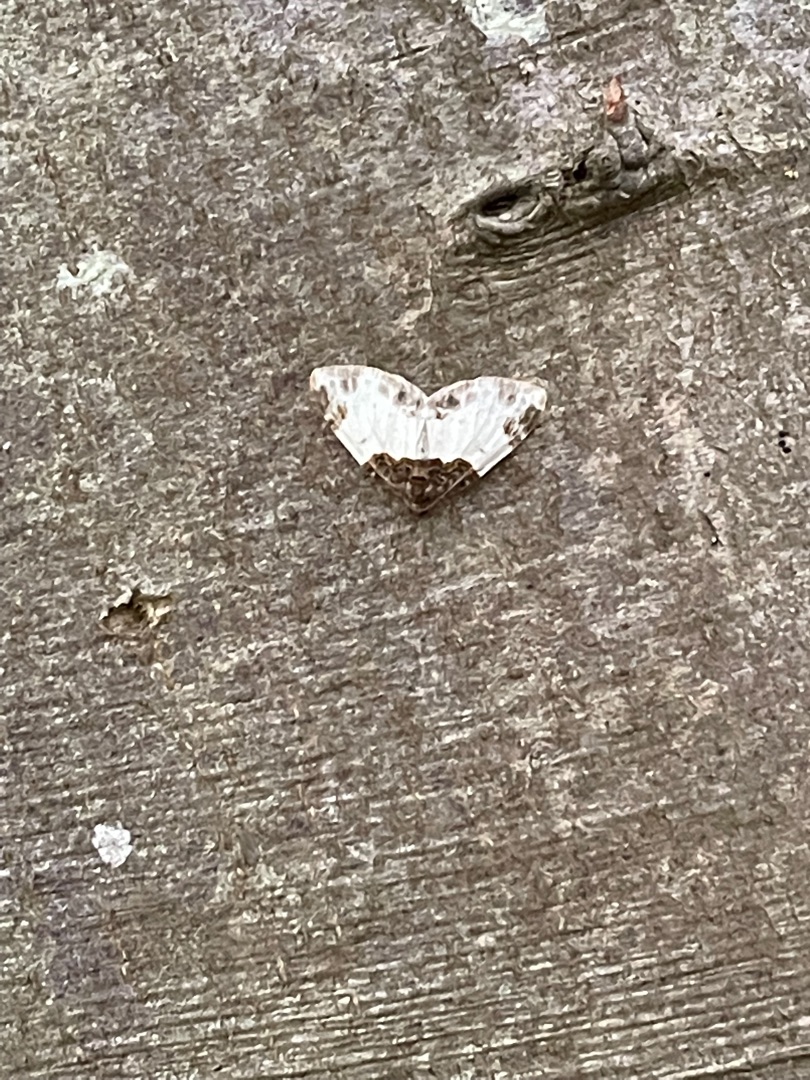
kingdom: Animalia
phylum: Arthropoda
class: Insecta
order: Lepidoptera
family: Geometridae
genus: Mesoleuca
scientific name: Mesoleuca albicillata
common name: Hindbær-bladmåler
